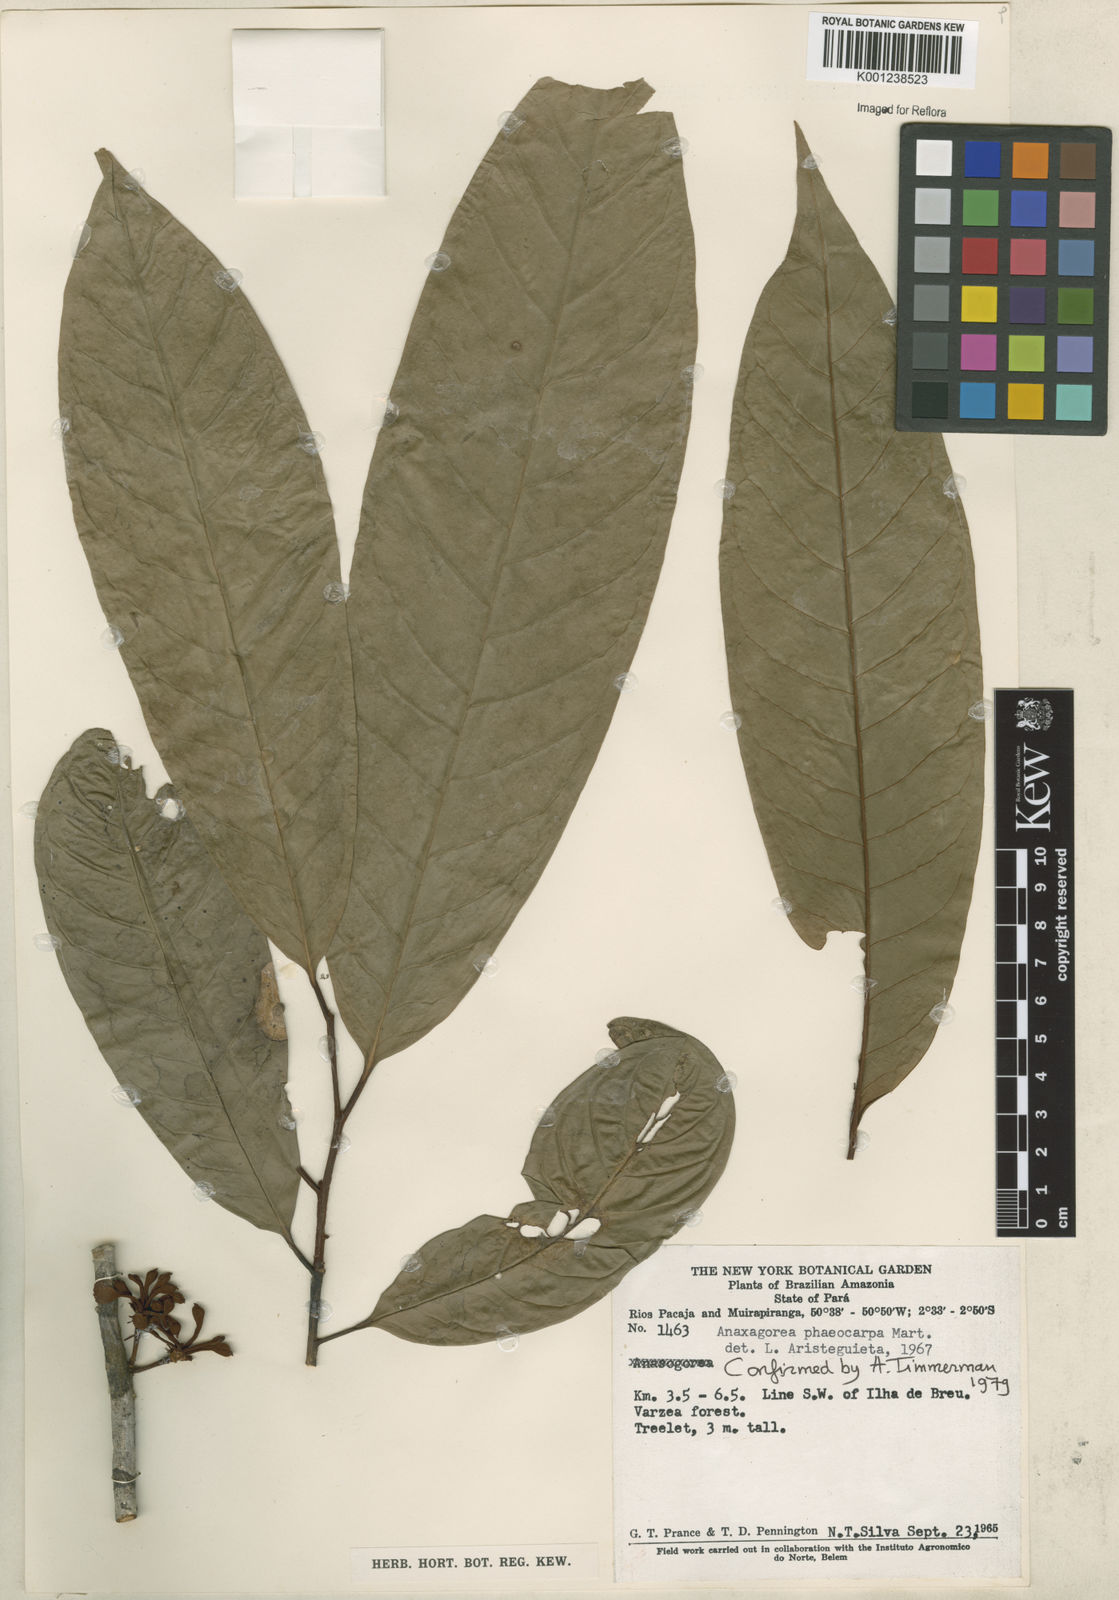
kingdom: Plantae
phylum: Tracheophyta
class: Magnoliopsida
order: Magnoliales
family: Annonaceae
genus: Anaxagorea
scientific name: Anaxagorea phaeocarpa
